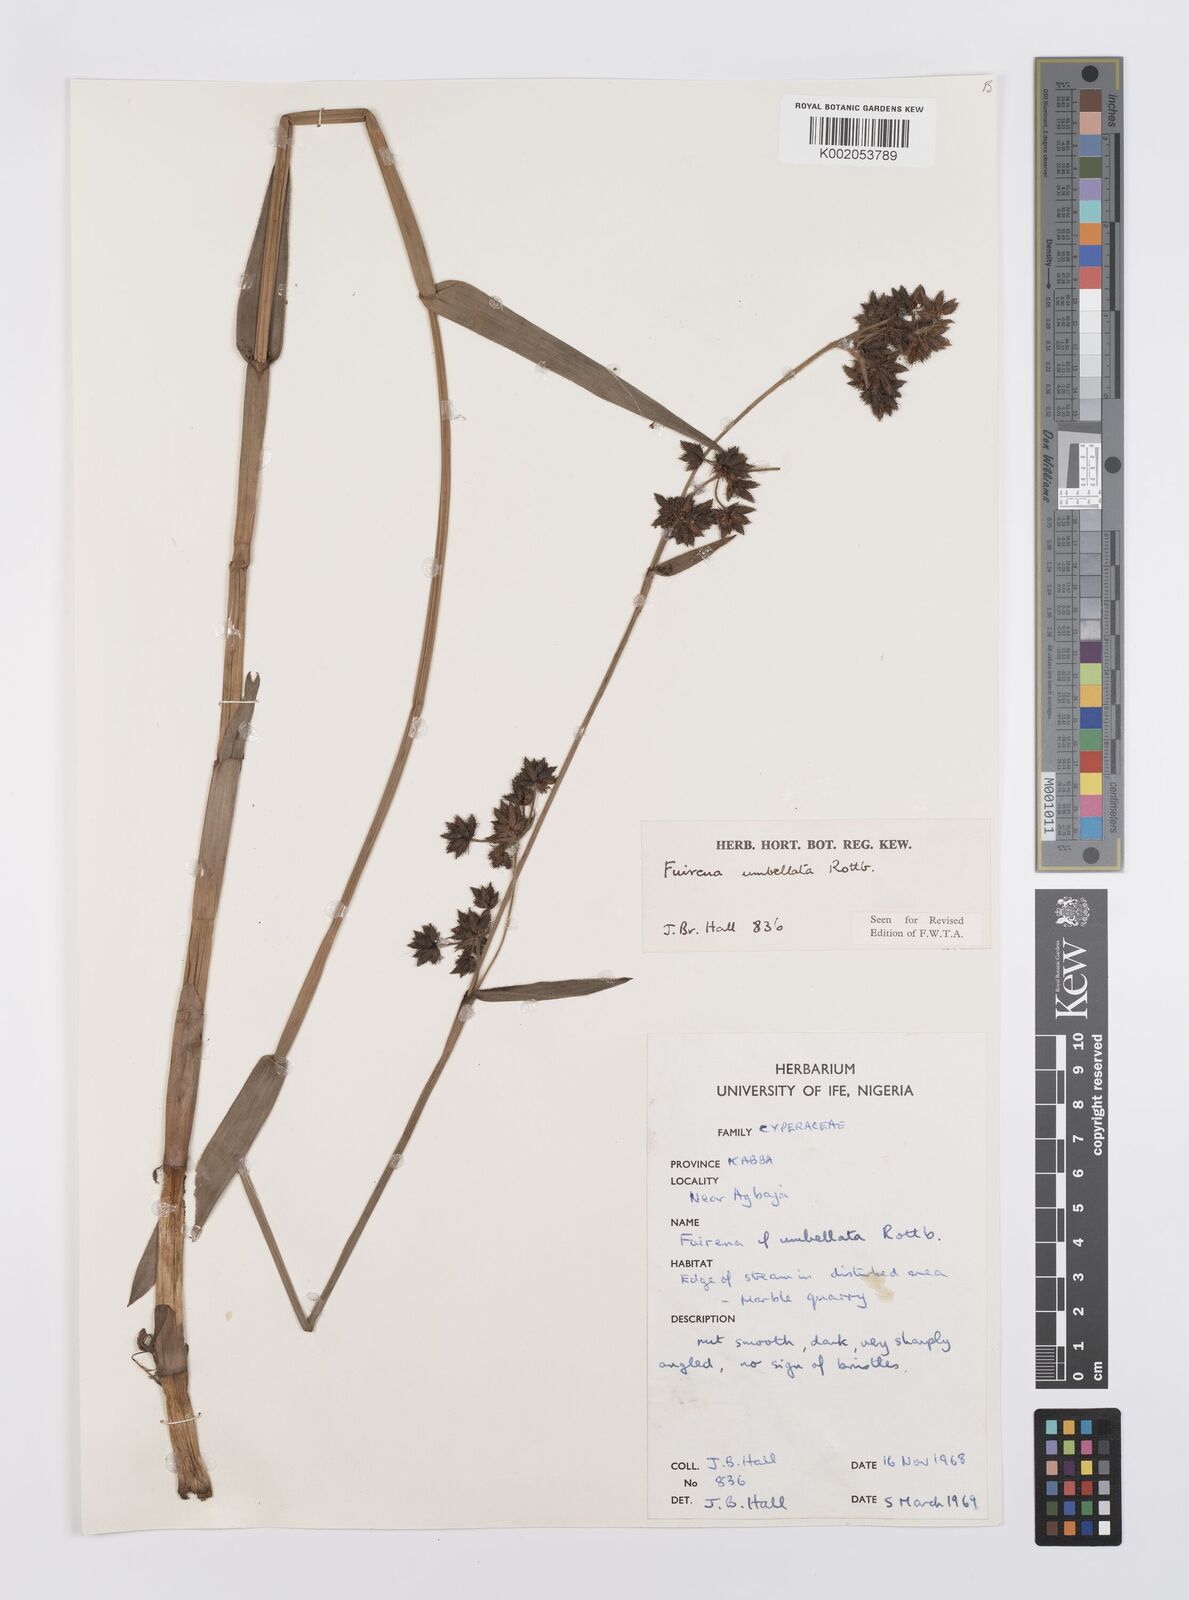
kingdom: Plantae
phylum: Tracheophyta
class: Liliopsida
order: Poales
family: Cyperaceae
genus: Fuirena
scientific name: Fuirena umbellata
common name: Yefen
